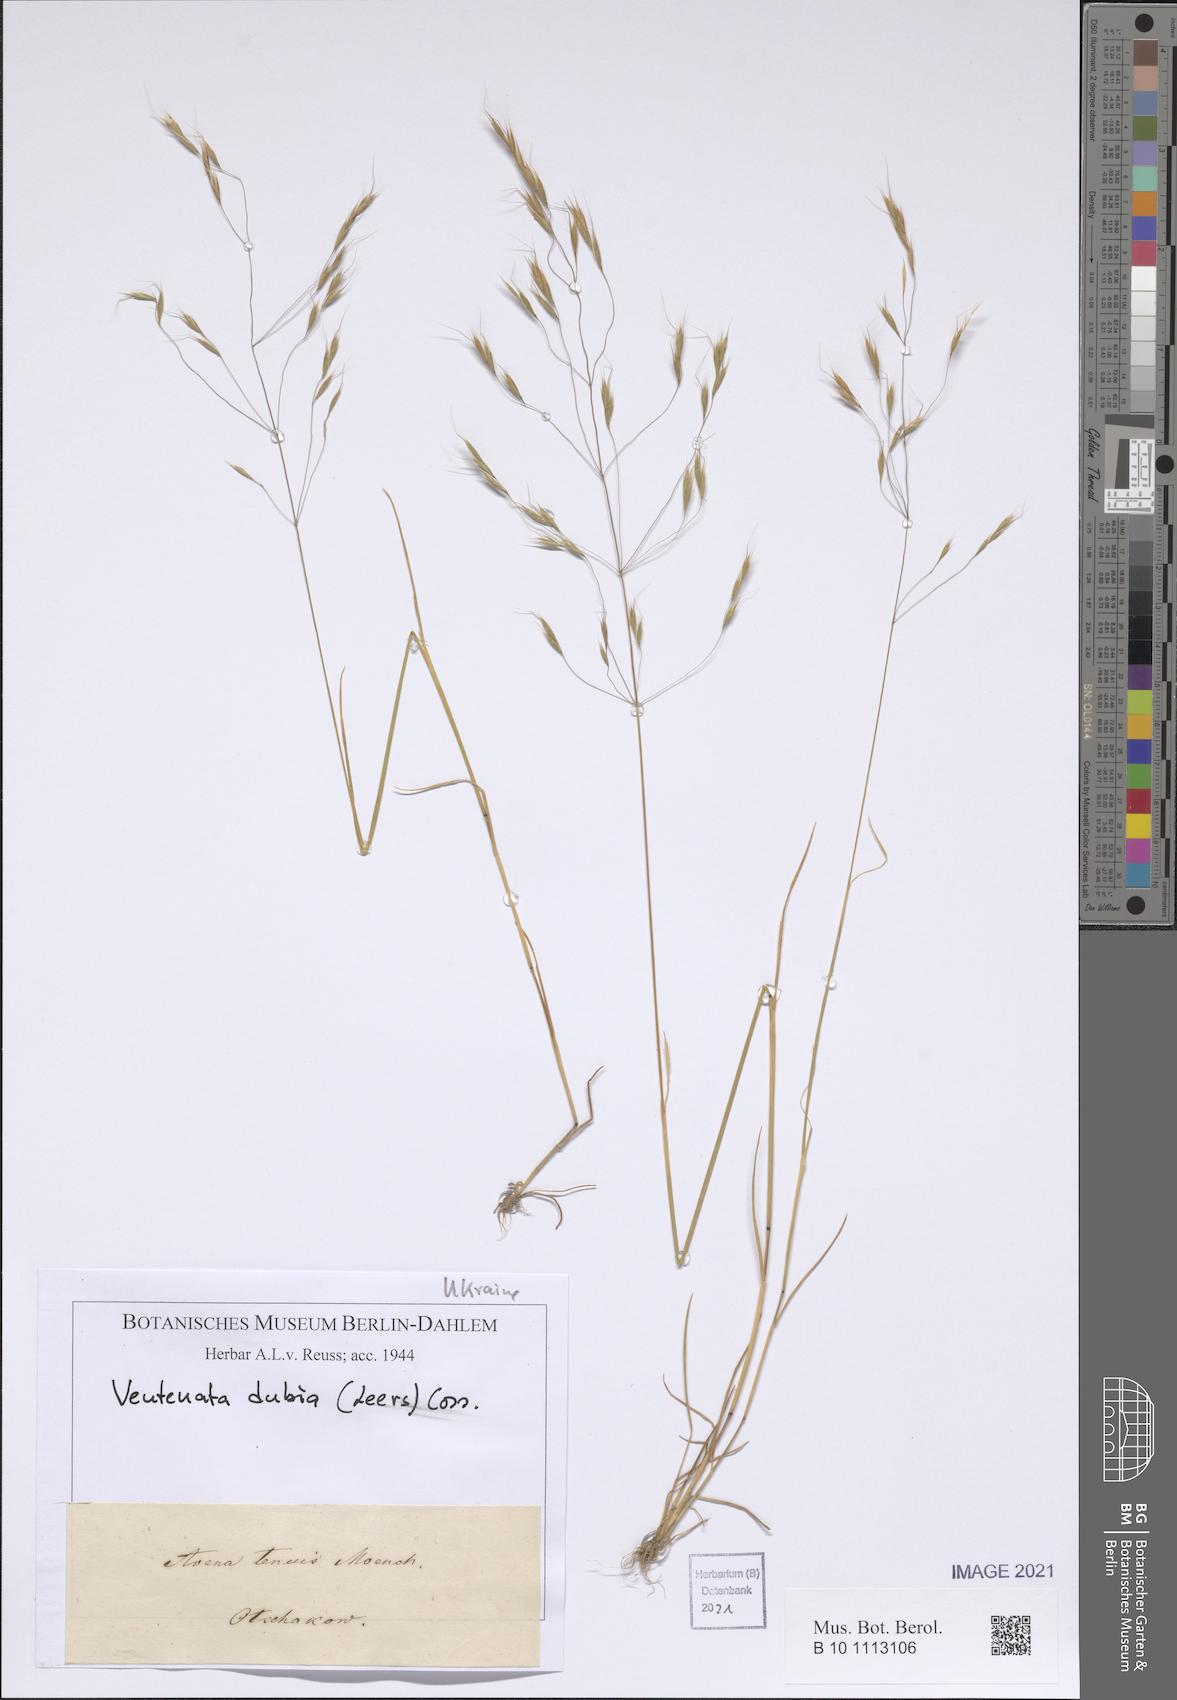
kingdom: Plantae
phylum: Tracheophyta
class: Liliopsida
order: Poales
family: Poaceae
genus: Ventenata
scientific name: Ventenata dubia
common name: North africa grass
